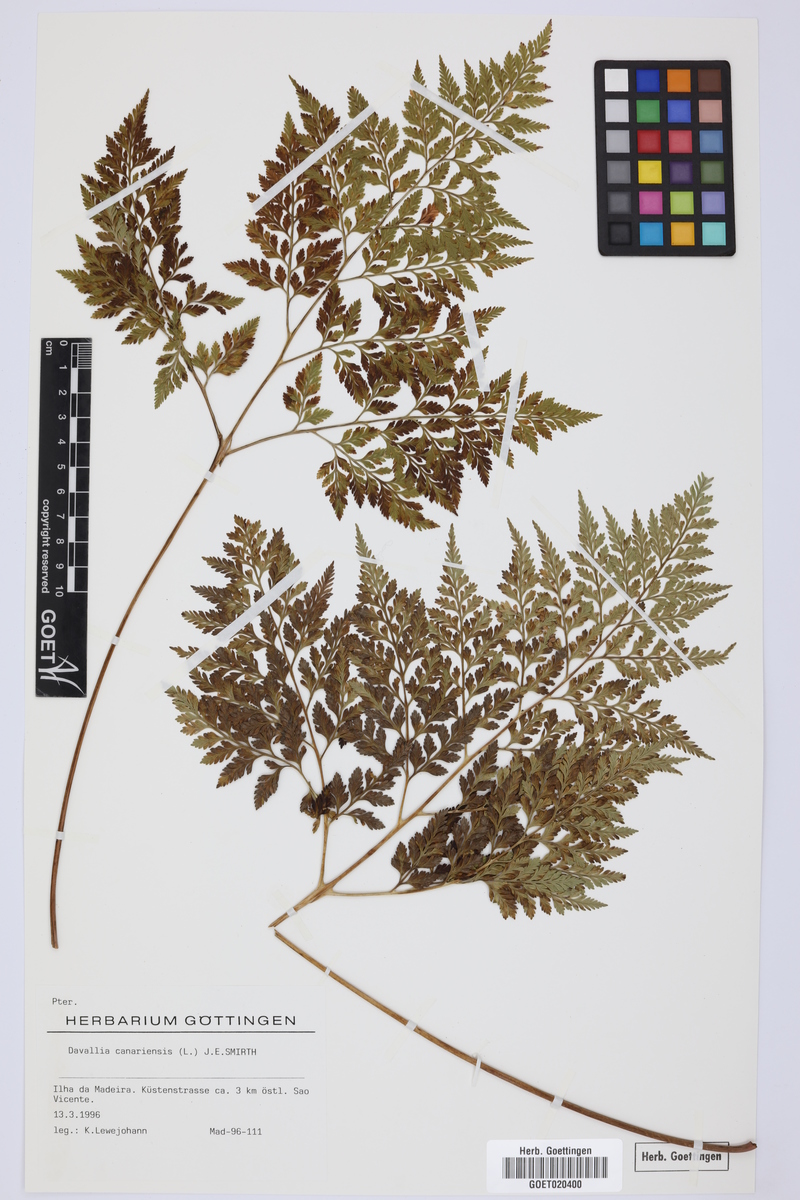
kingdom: Plantae
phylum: Tracheophyta
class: Polypodiopsida
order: Polypodiales
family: Davalliaceae
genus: Davallia
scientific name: Davallia canariensis
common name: Hare's-foot fern
